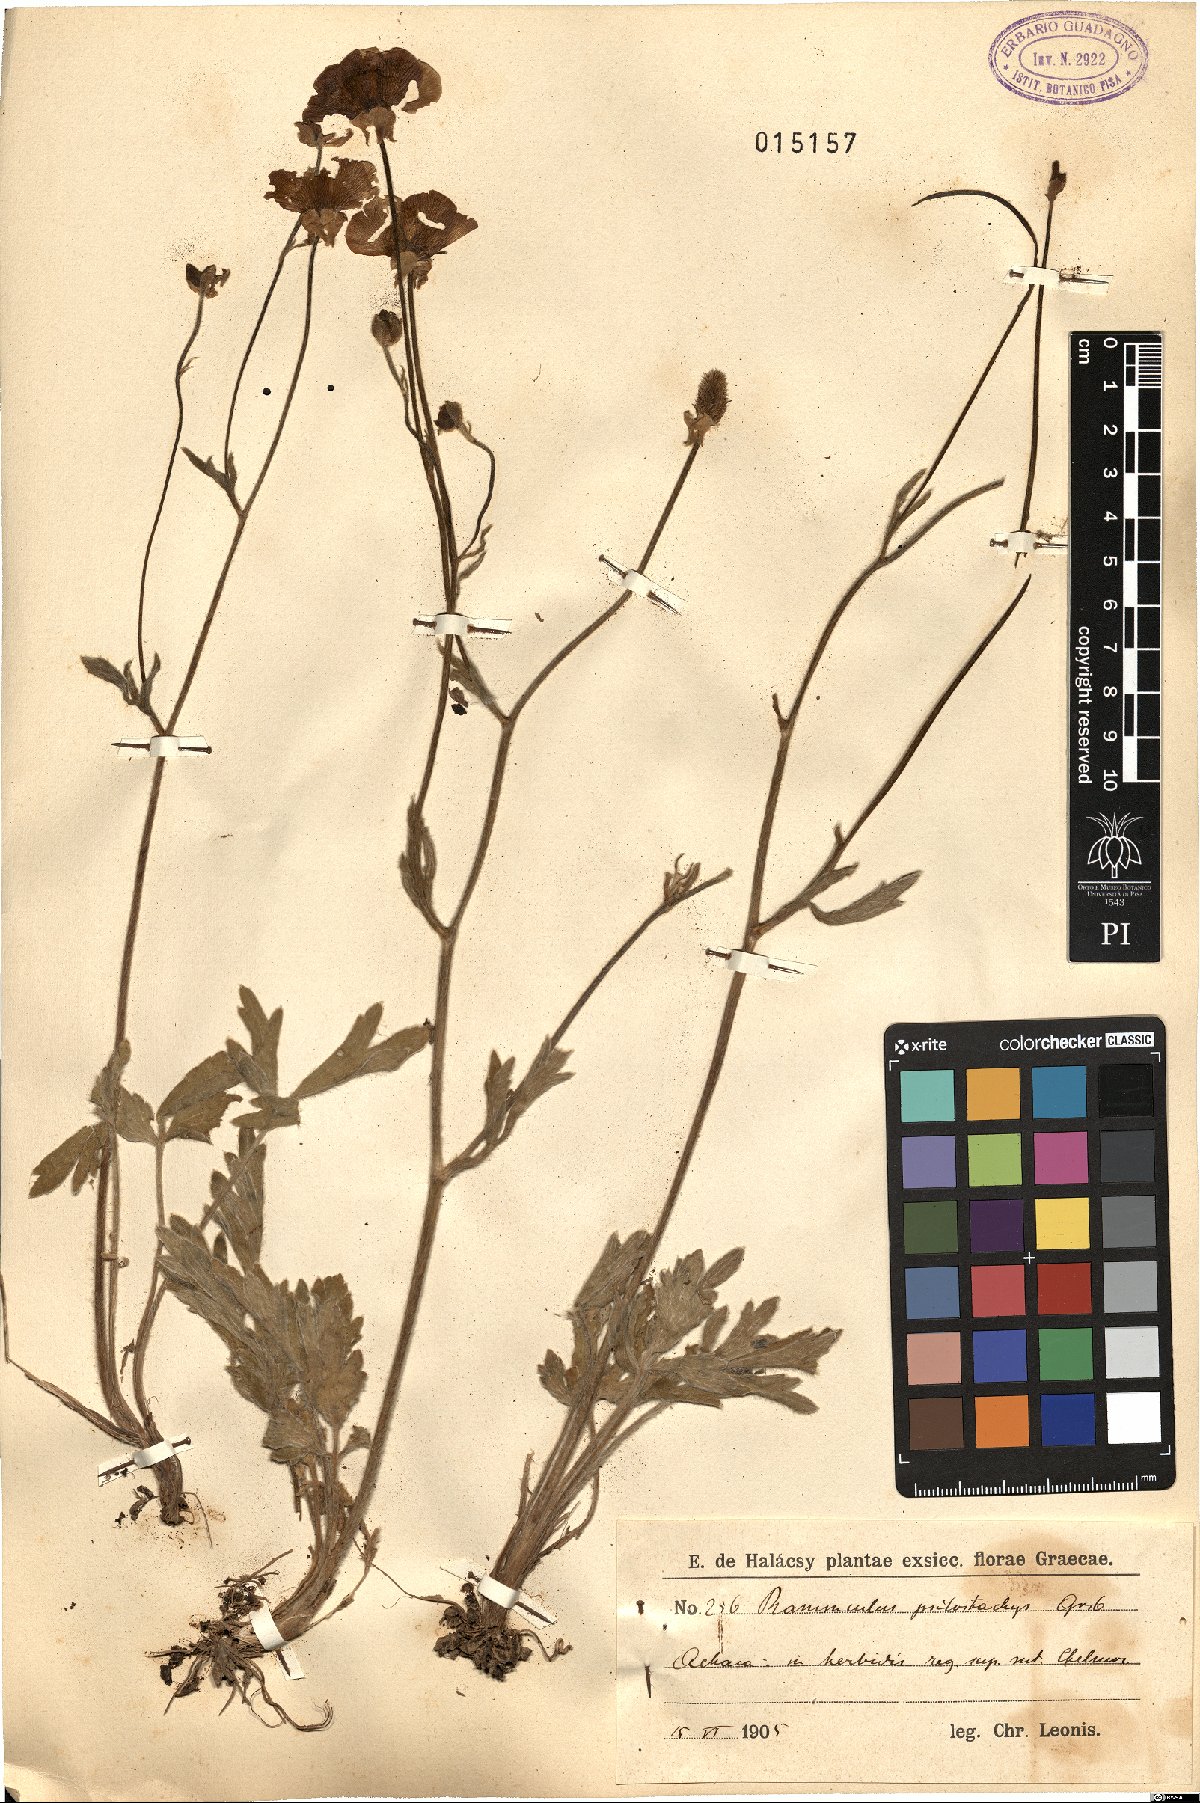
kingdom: Plantae
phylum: Tracheophyta
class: Magnoliopsida
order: Ranunculales
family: Ranunculaceae
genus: Ranunculus
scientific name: Ranunculus psilostachys
